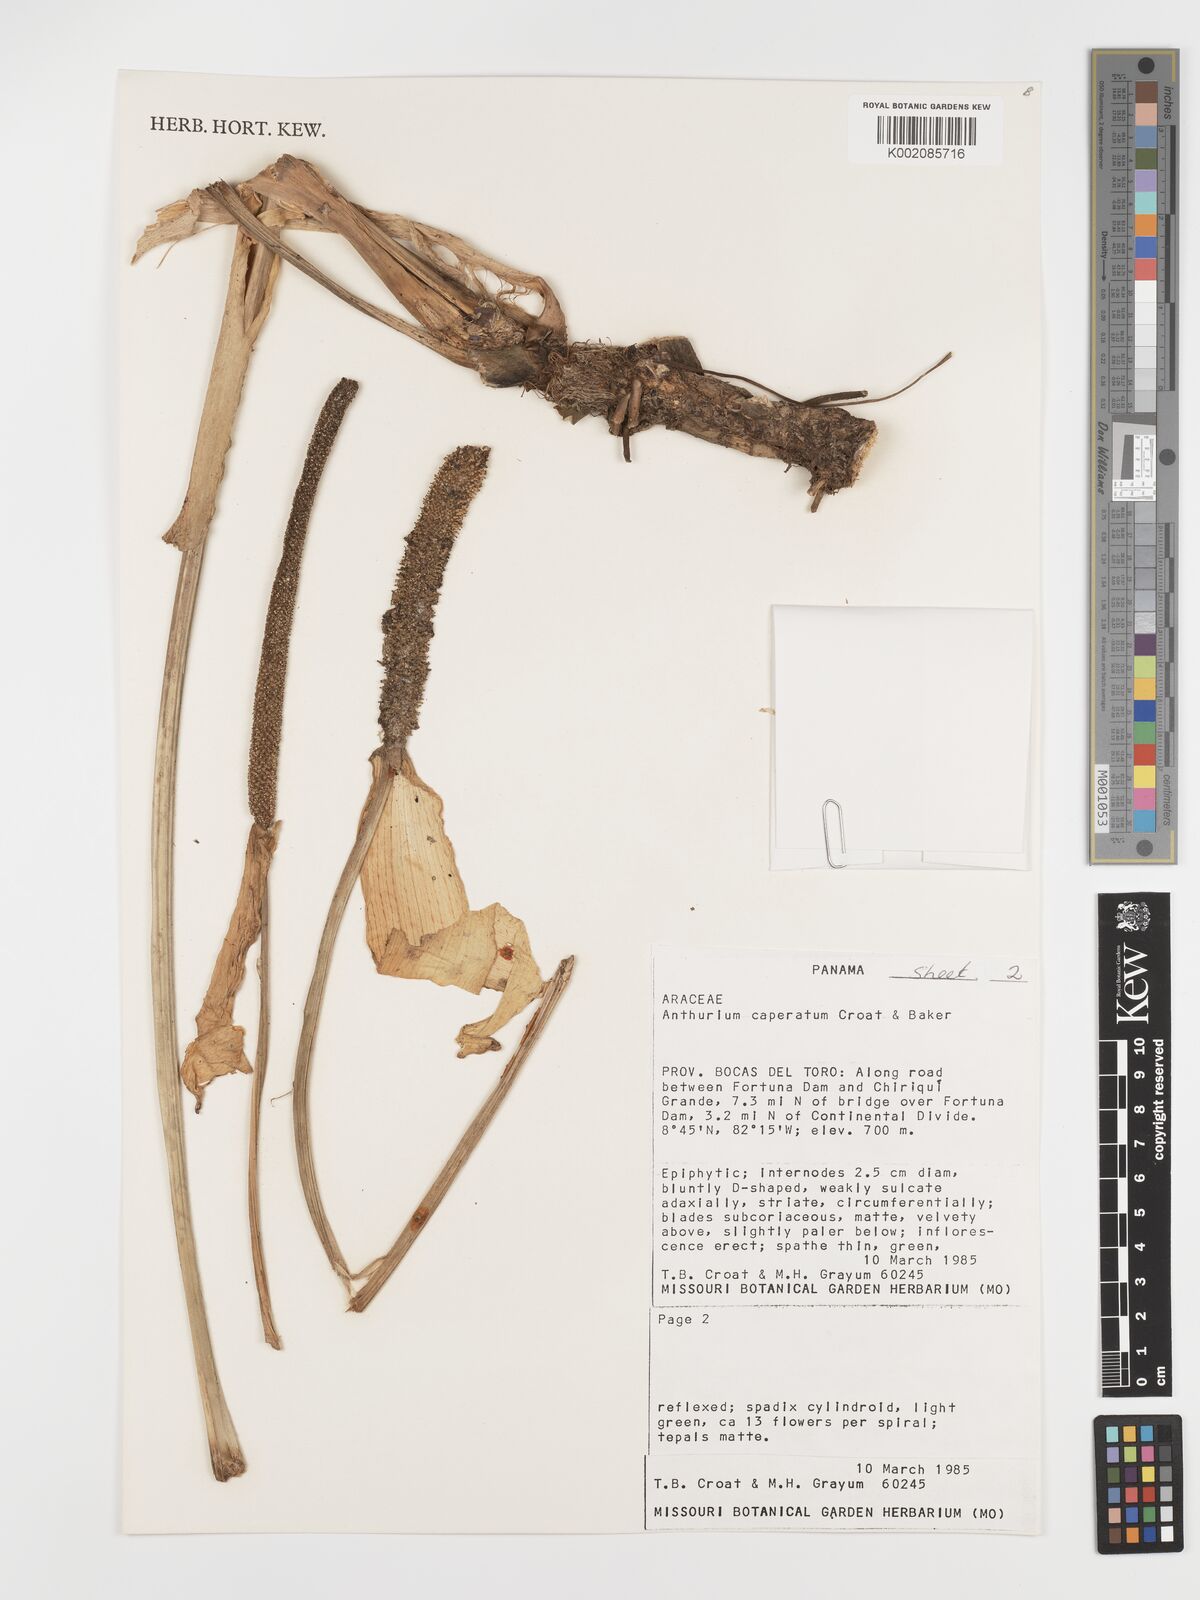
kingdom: Plantae
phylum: Tracheophyta
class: Liliopsida
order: Alismatales
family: Araceae
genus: Anthurium
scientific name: Anthurium caperatum
